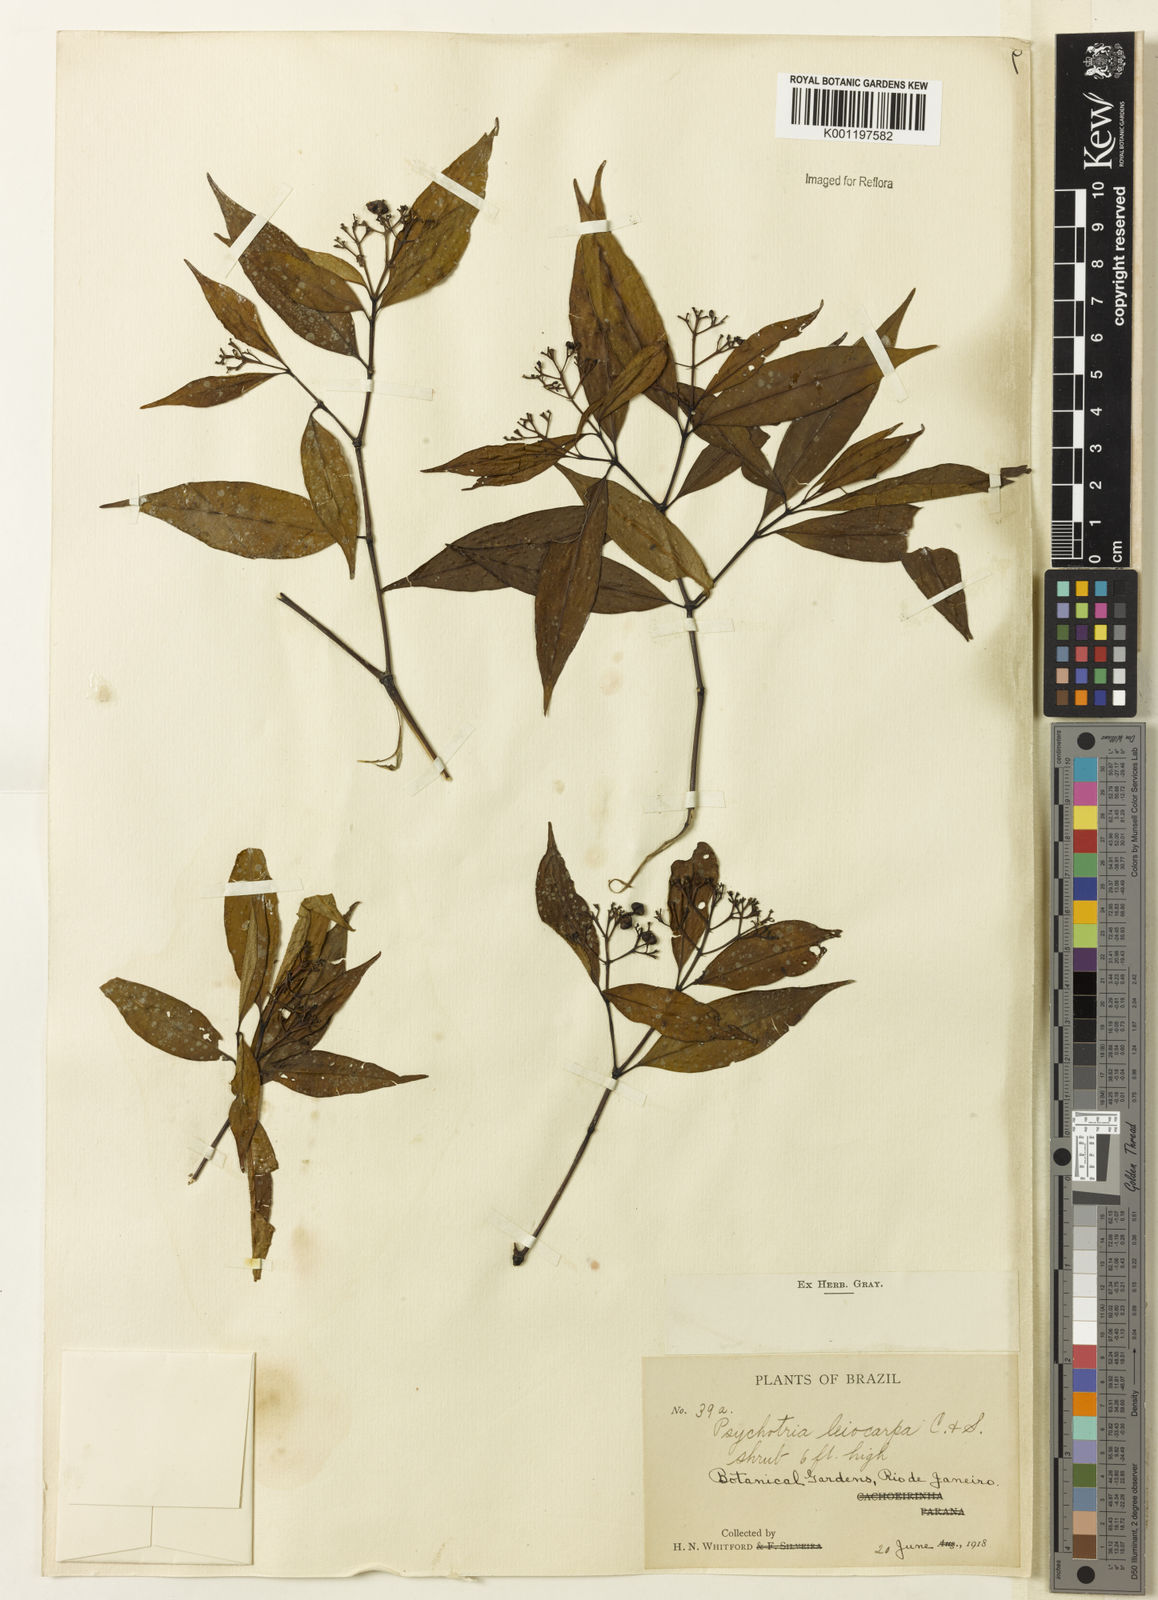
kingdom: Plantae
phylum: Tracheophyta
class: Magnoliopsida
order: Gentianales
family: Rubiaceae
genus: Psychotria
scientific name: Psychotria leiocarpa
